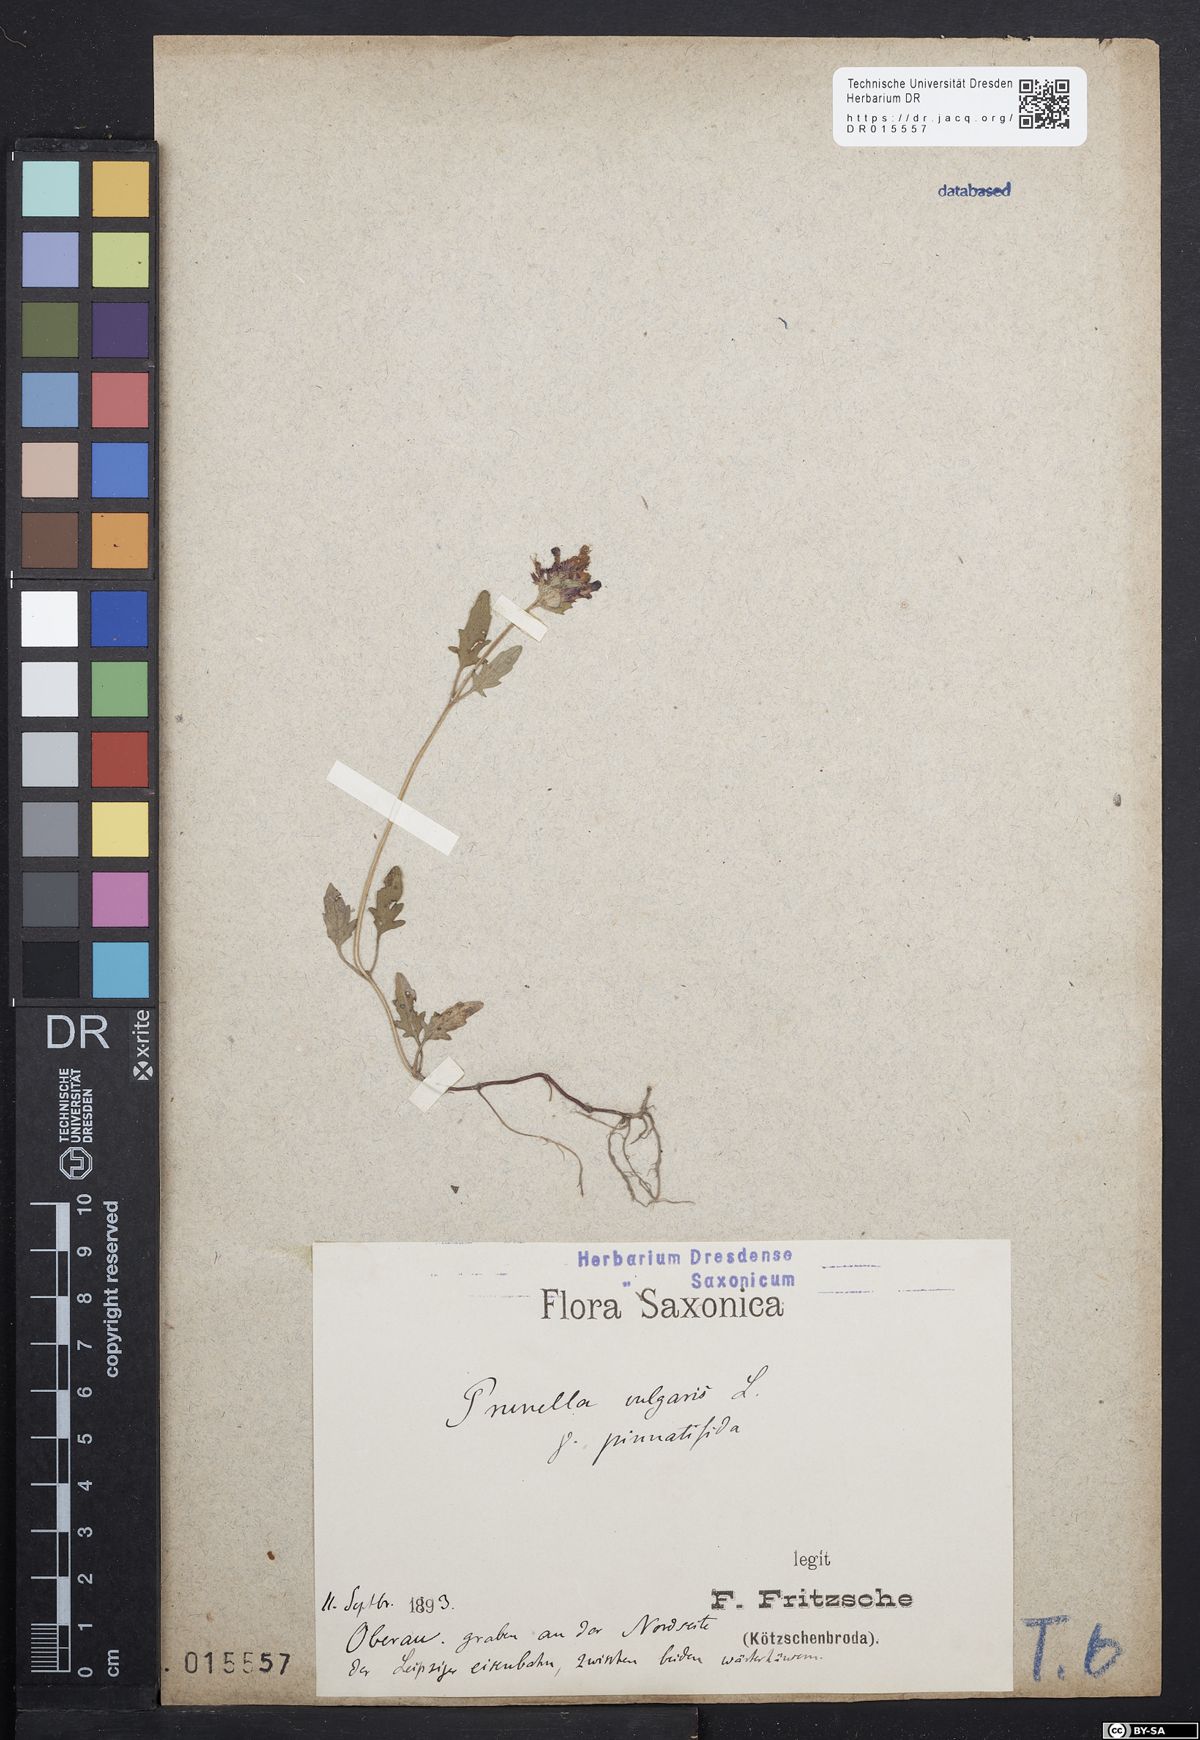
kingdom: Plantae
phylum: Tracheophyta
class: Magnoliopsida
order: Lamiales
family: Lamiaceae
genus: Prunella
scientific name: Prunella vulgaris
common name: Heal-all
